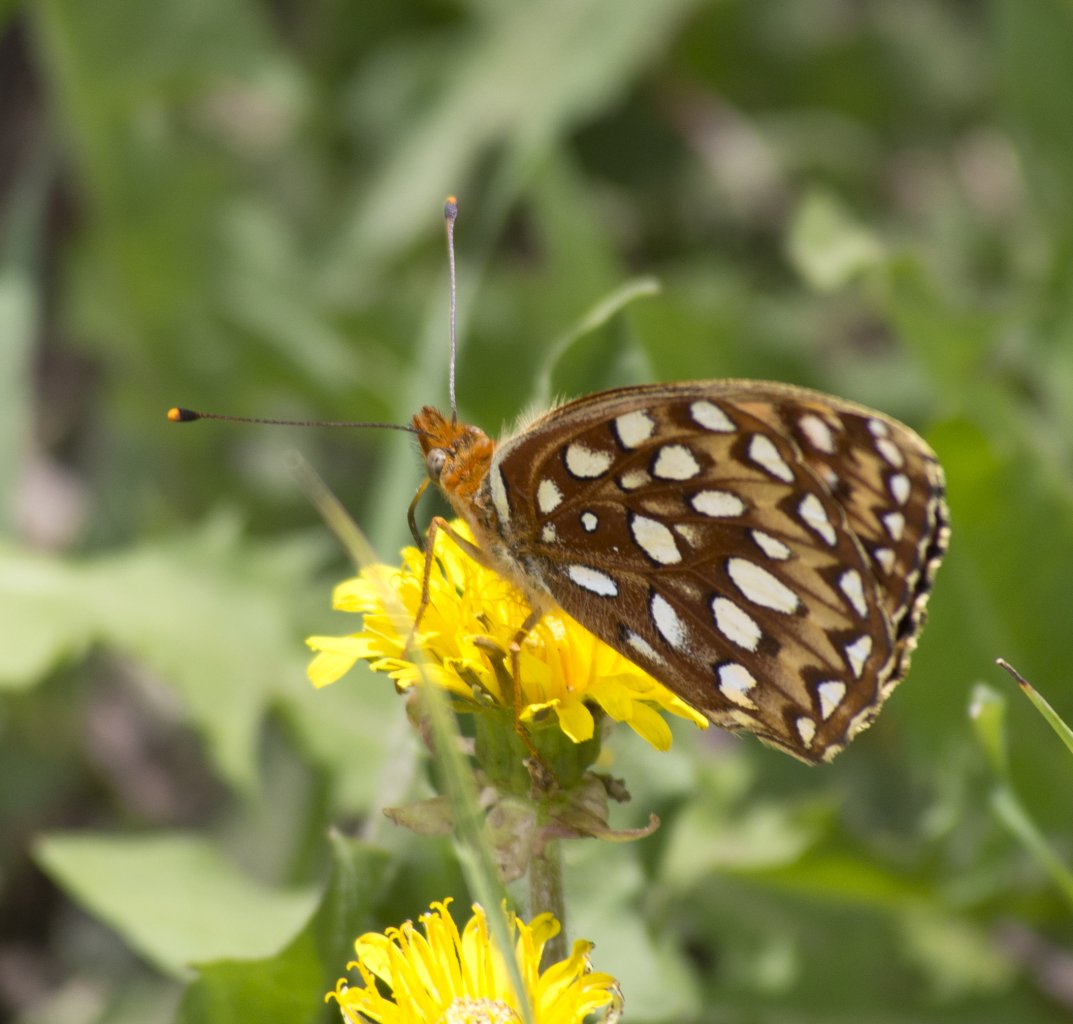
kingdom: Animalia
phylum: Arthropoda
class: Insecta
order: Lepidoptera
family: Nymphalidae
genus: Speyeria
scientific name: Speyeria atlantis
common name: Northwestern Fritillary
